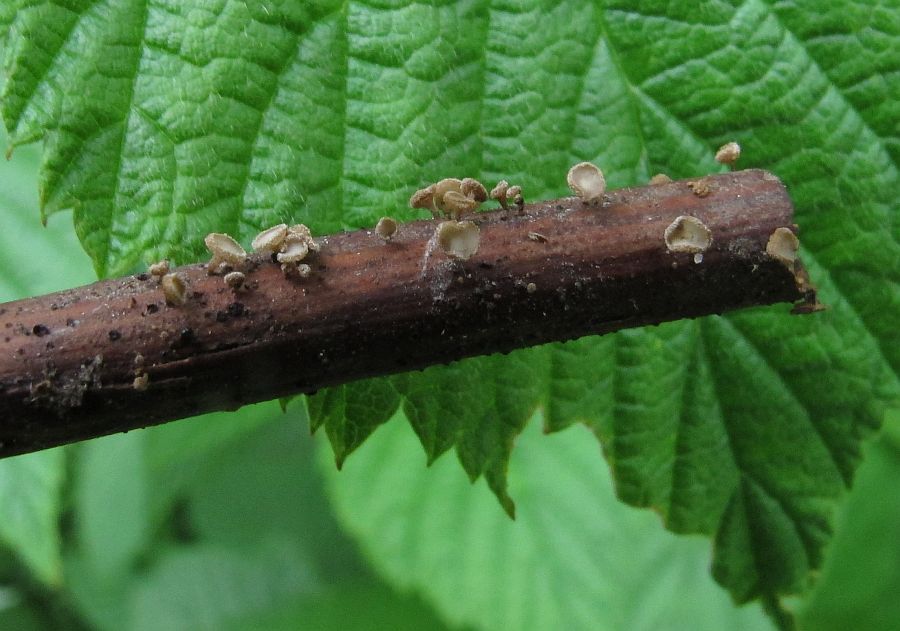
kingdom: Fungi
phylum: Ascomycota
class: Leotiomycetes
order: Helotiales
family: Lachnaceae
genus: Brunnipila
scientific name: Brunnipila clandestina
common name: hindbær-frynseskive
